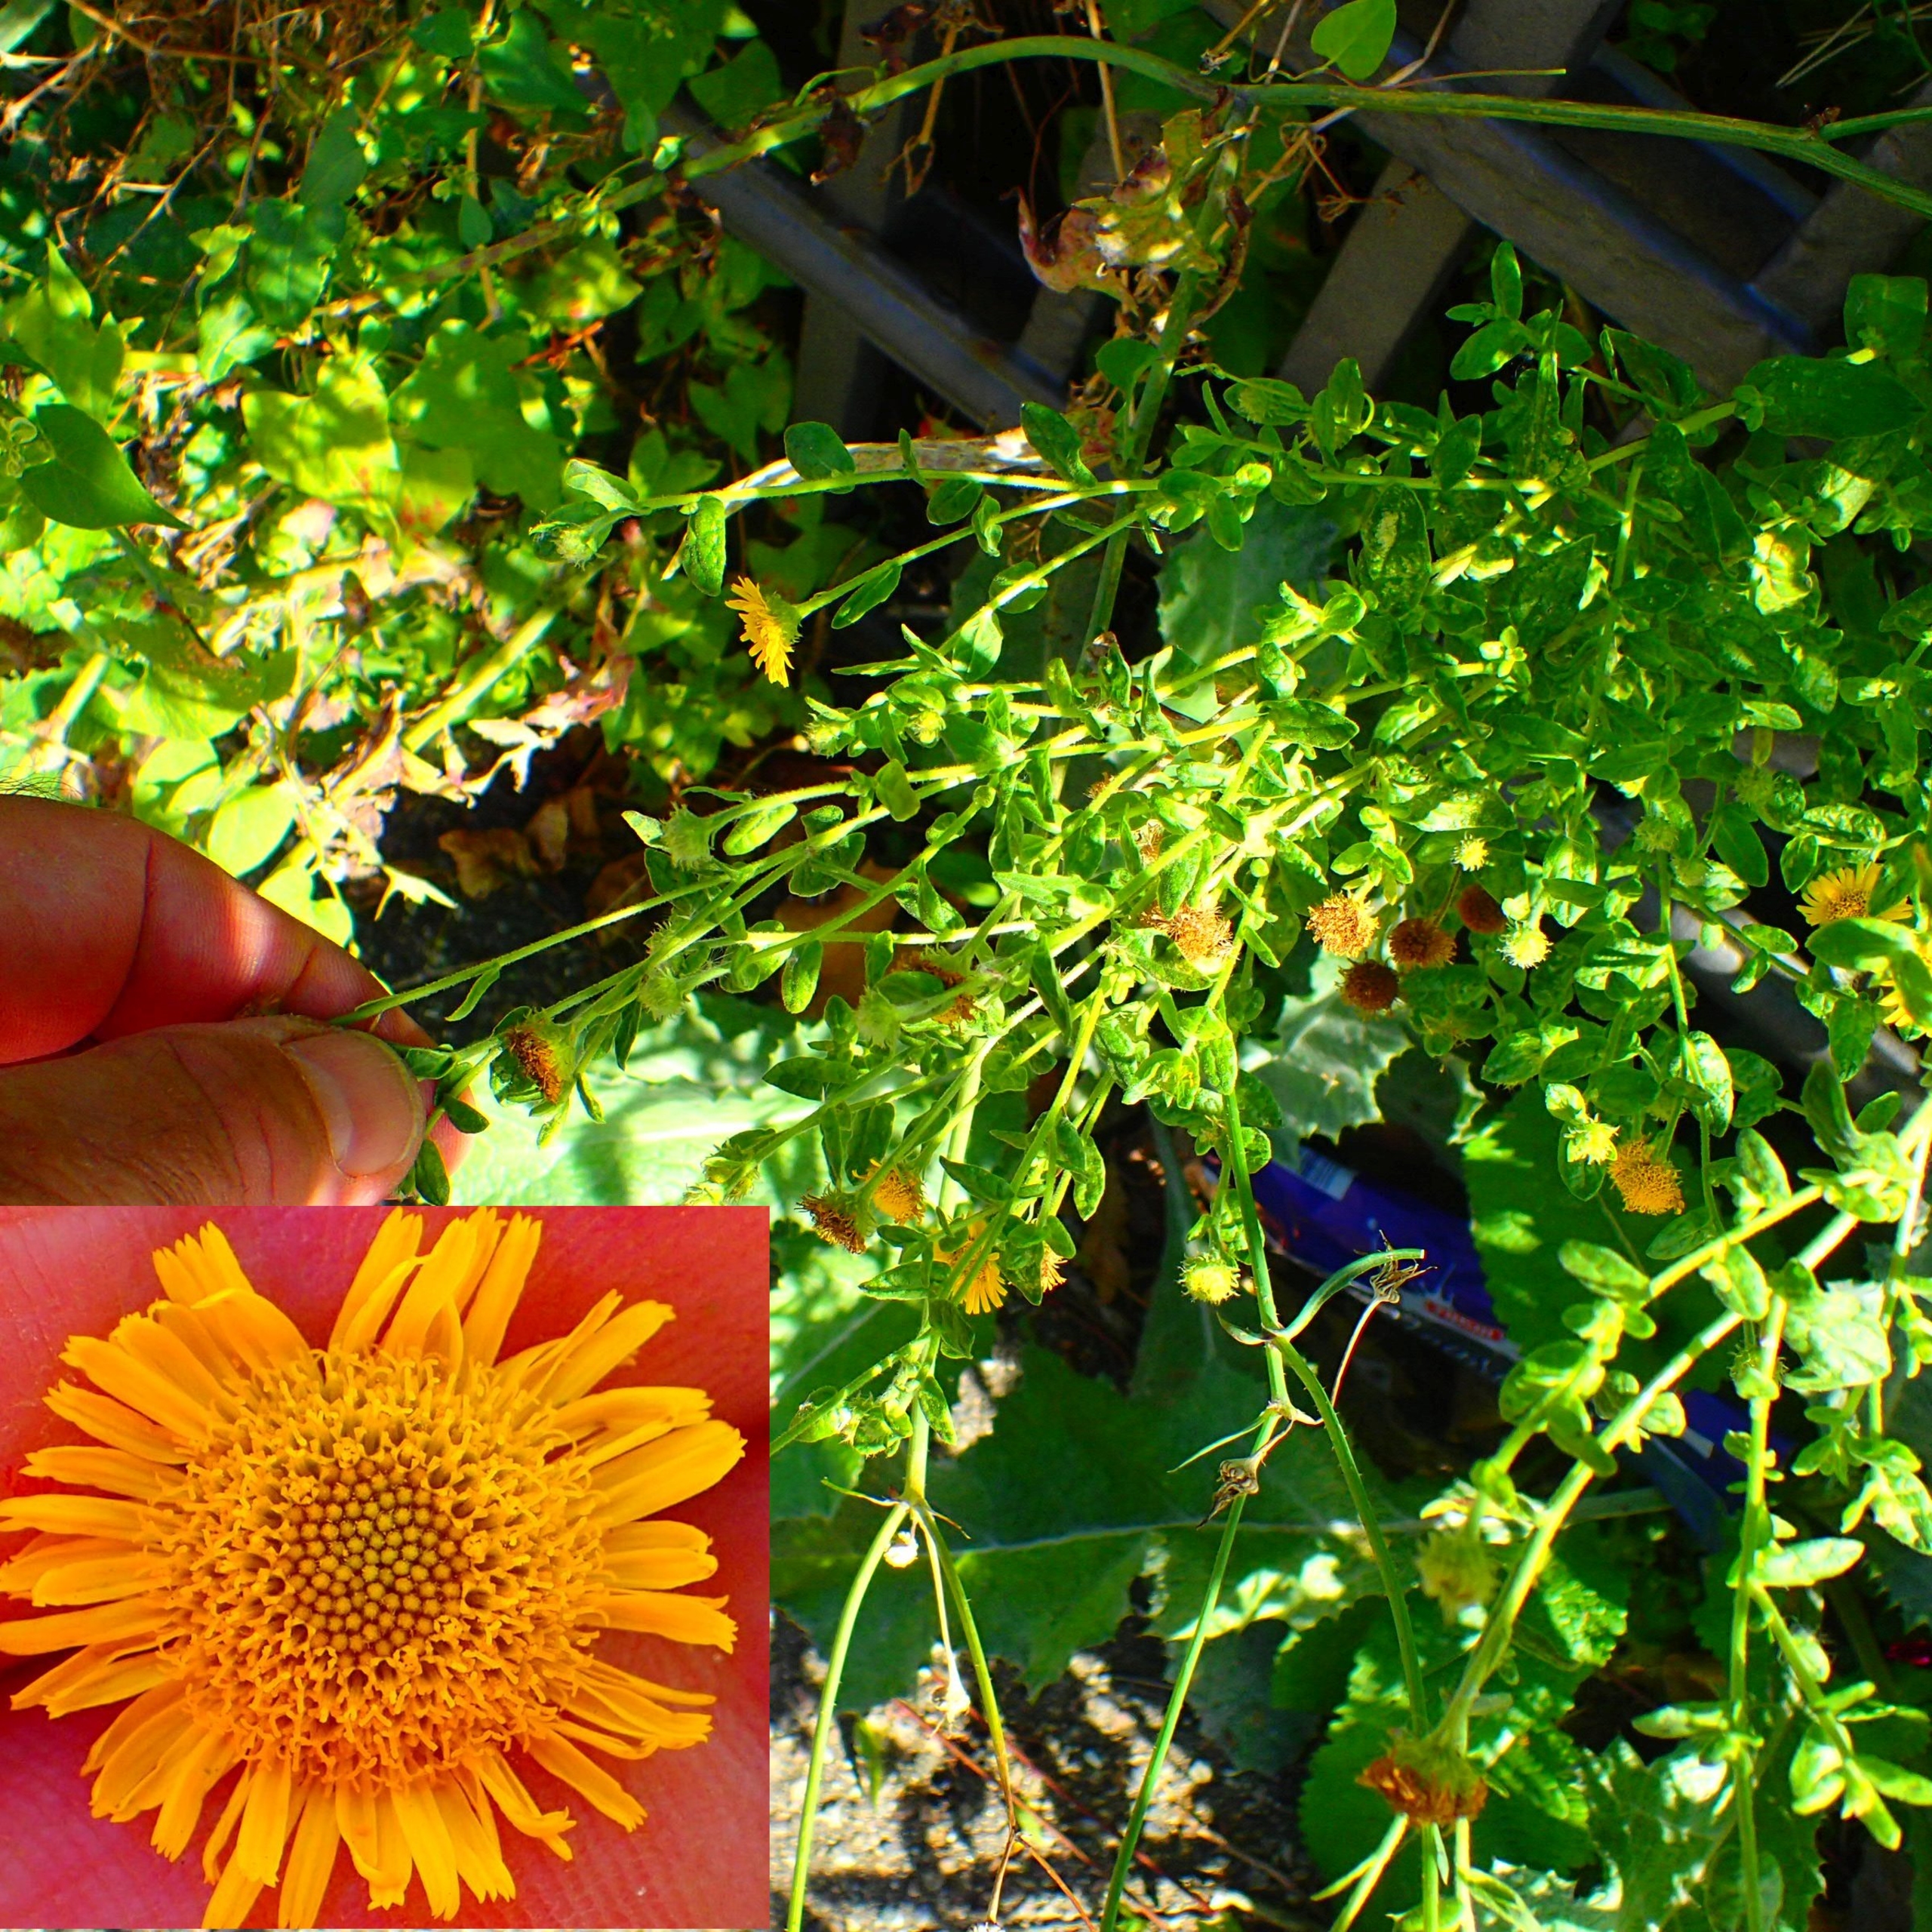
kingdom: Plantae
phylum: Tracheophyta
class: Magnoliopsida
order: Asterales
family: Asteraceae
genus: Pulicaria
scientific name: Pulicaria dysenterica
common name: Strand-loppeurt
